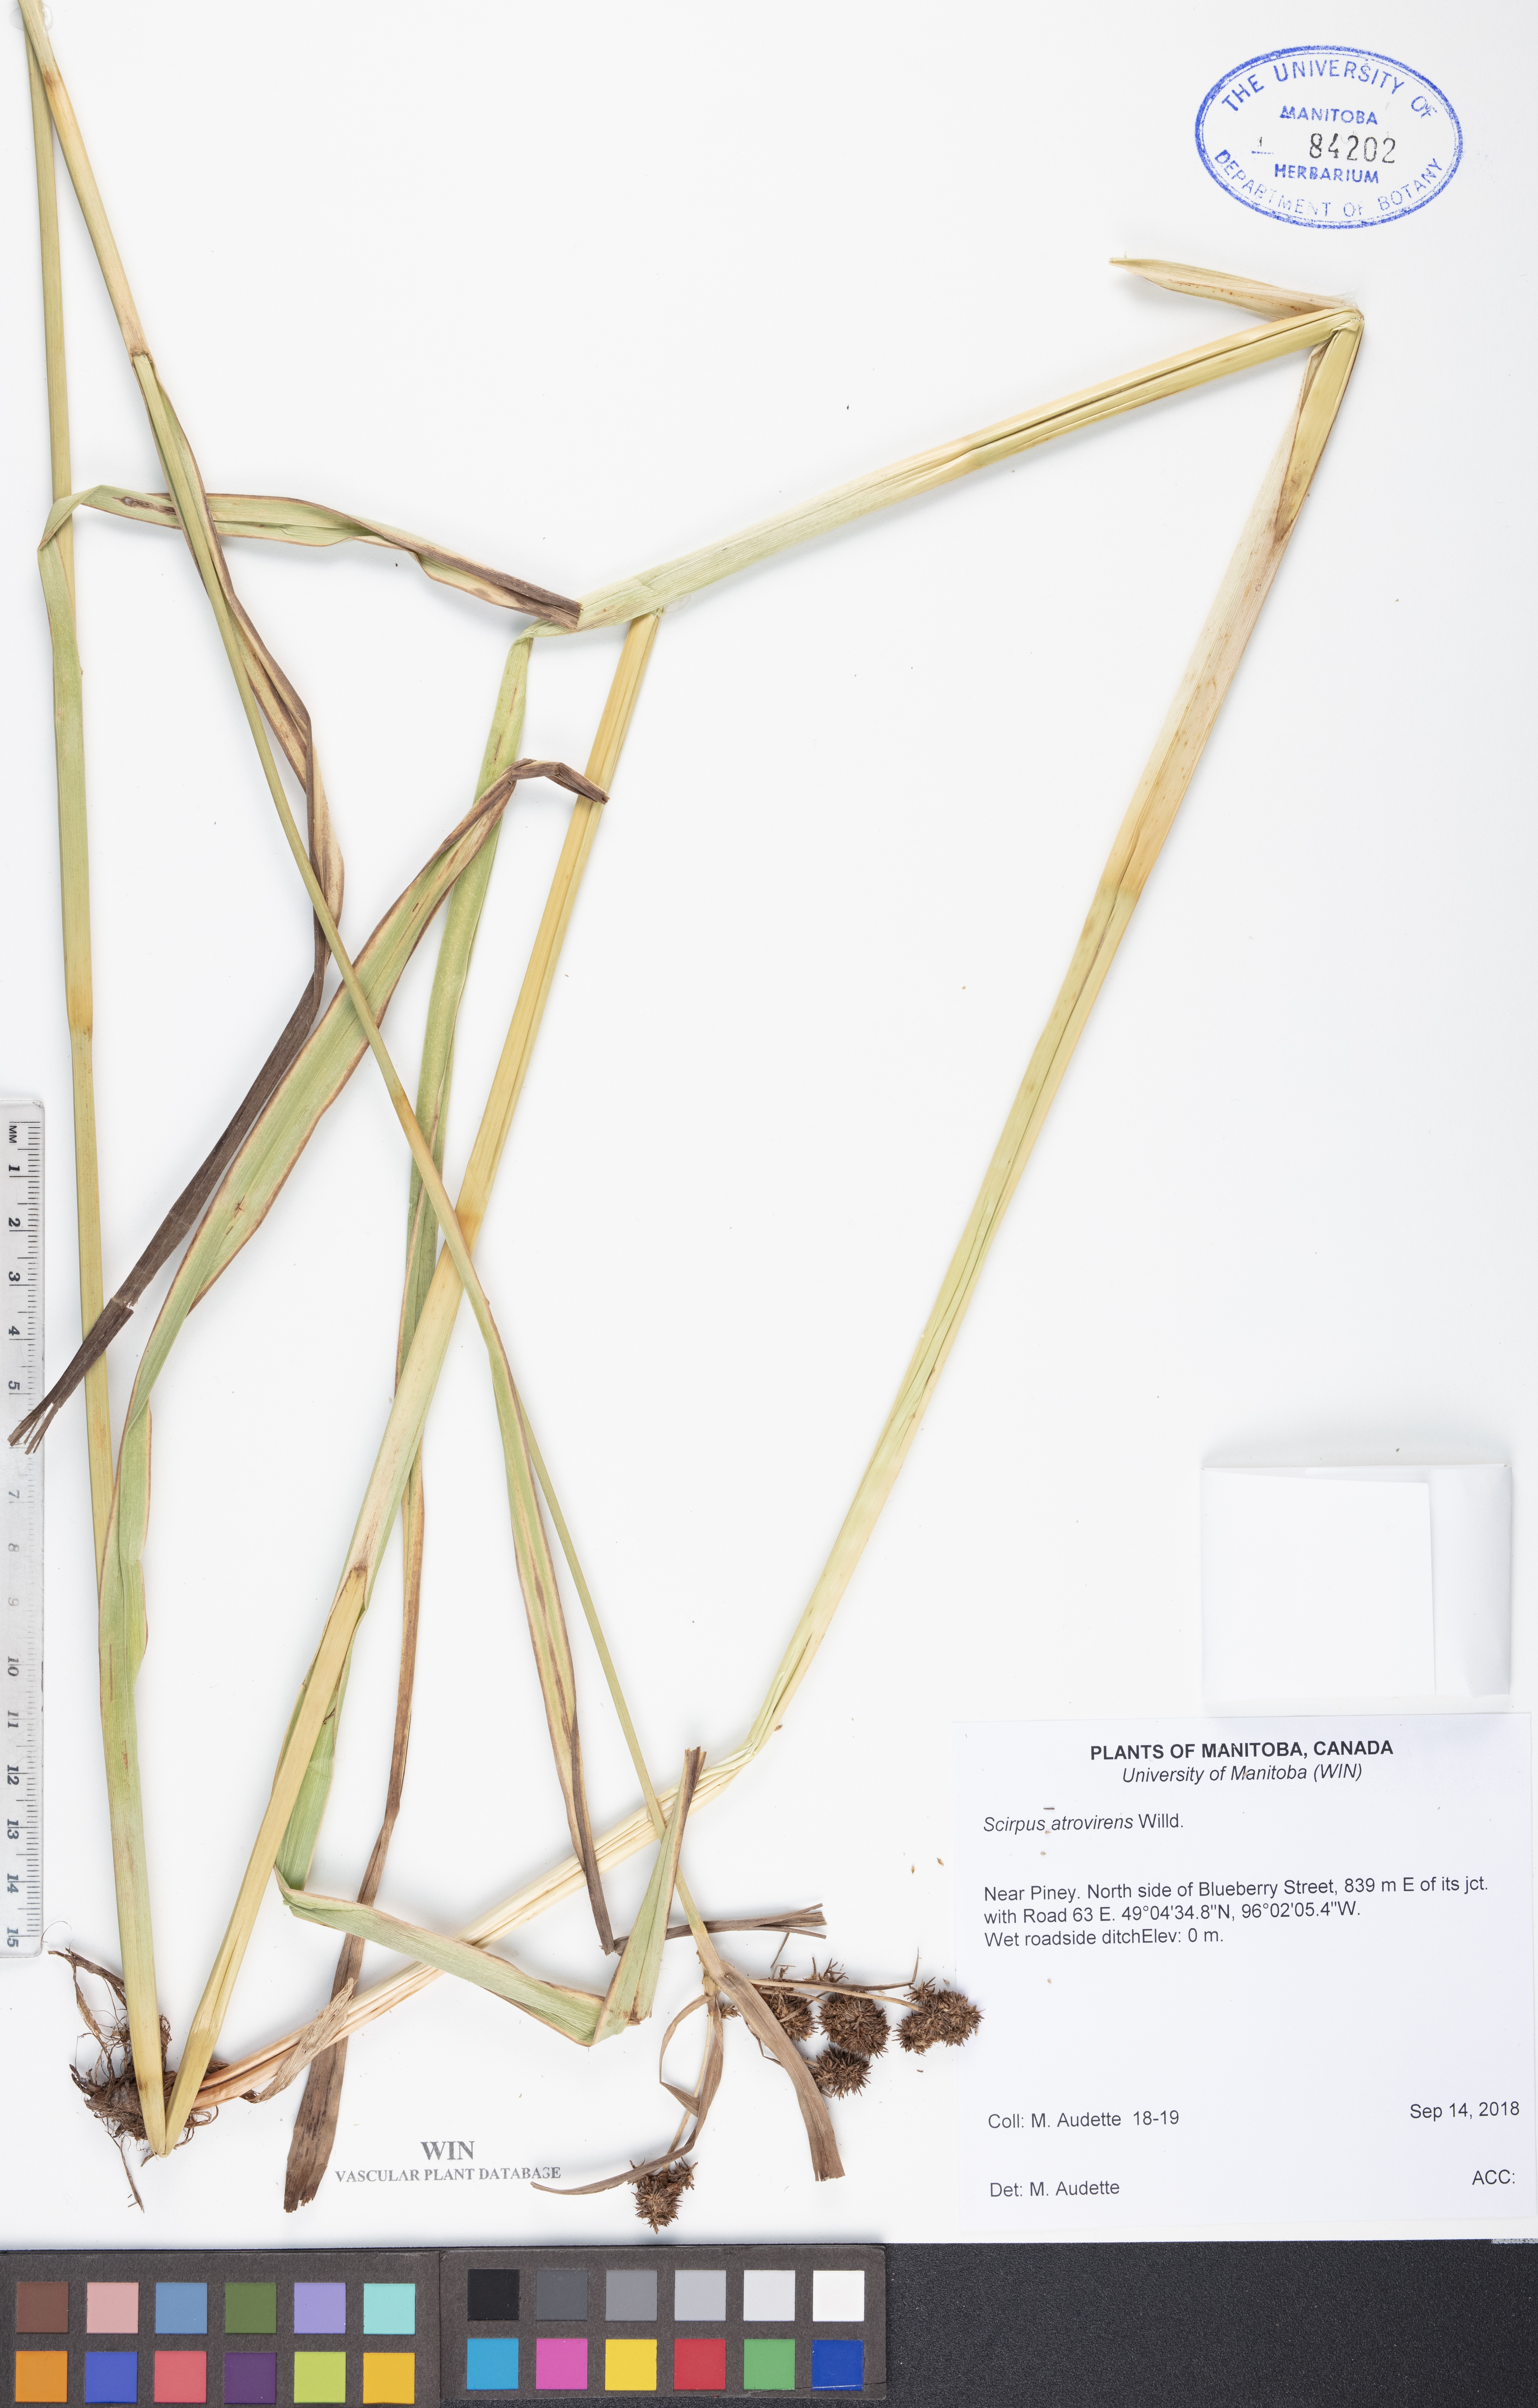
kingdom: Plantae
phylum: Tracheophyta
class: Liliopsida
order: Poales
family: Cyperaceae
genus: Scirpus
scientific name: Scirpus atrovirens
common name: Black bulrush
